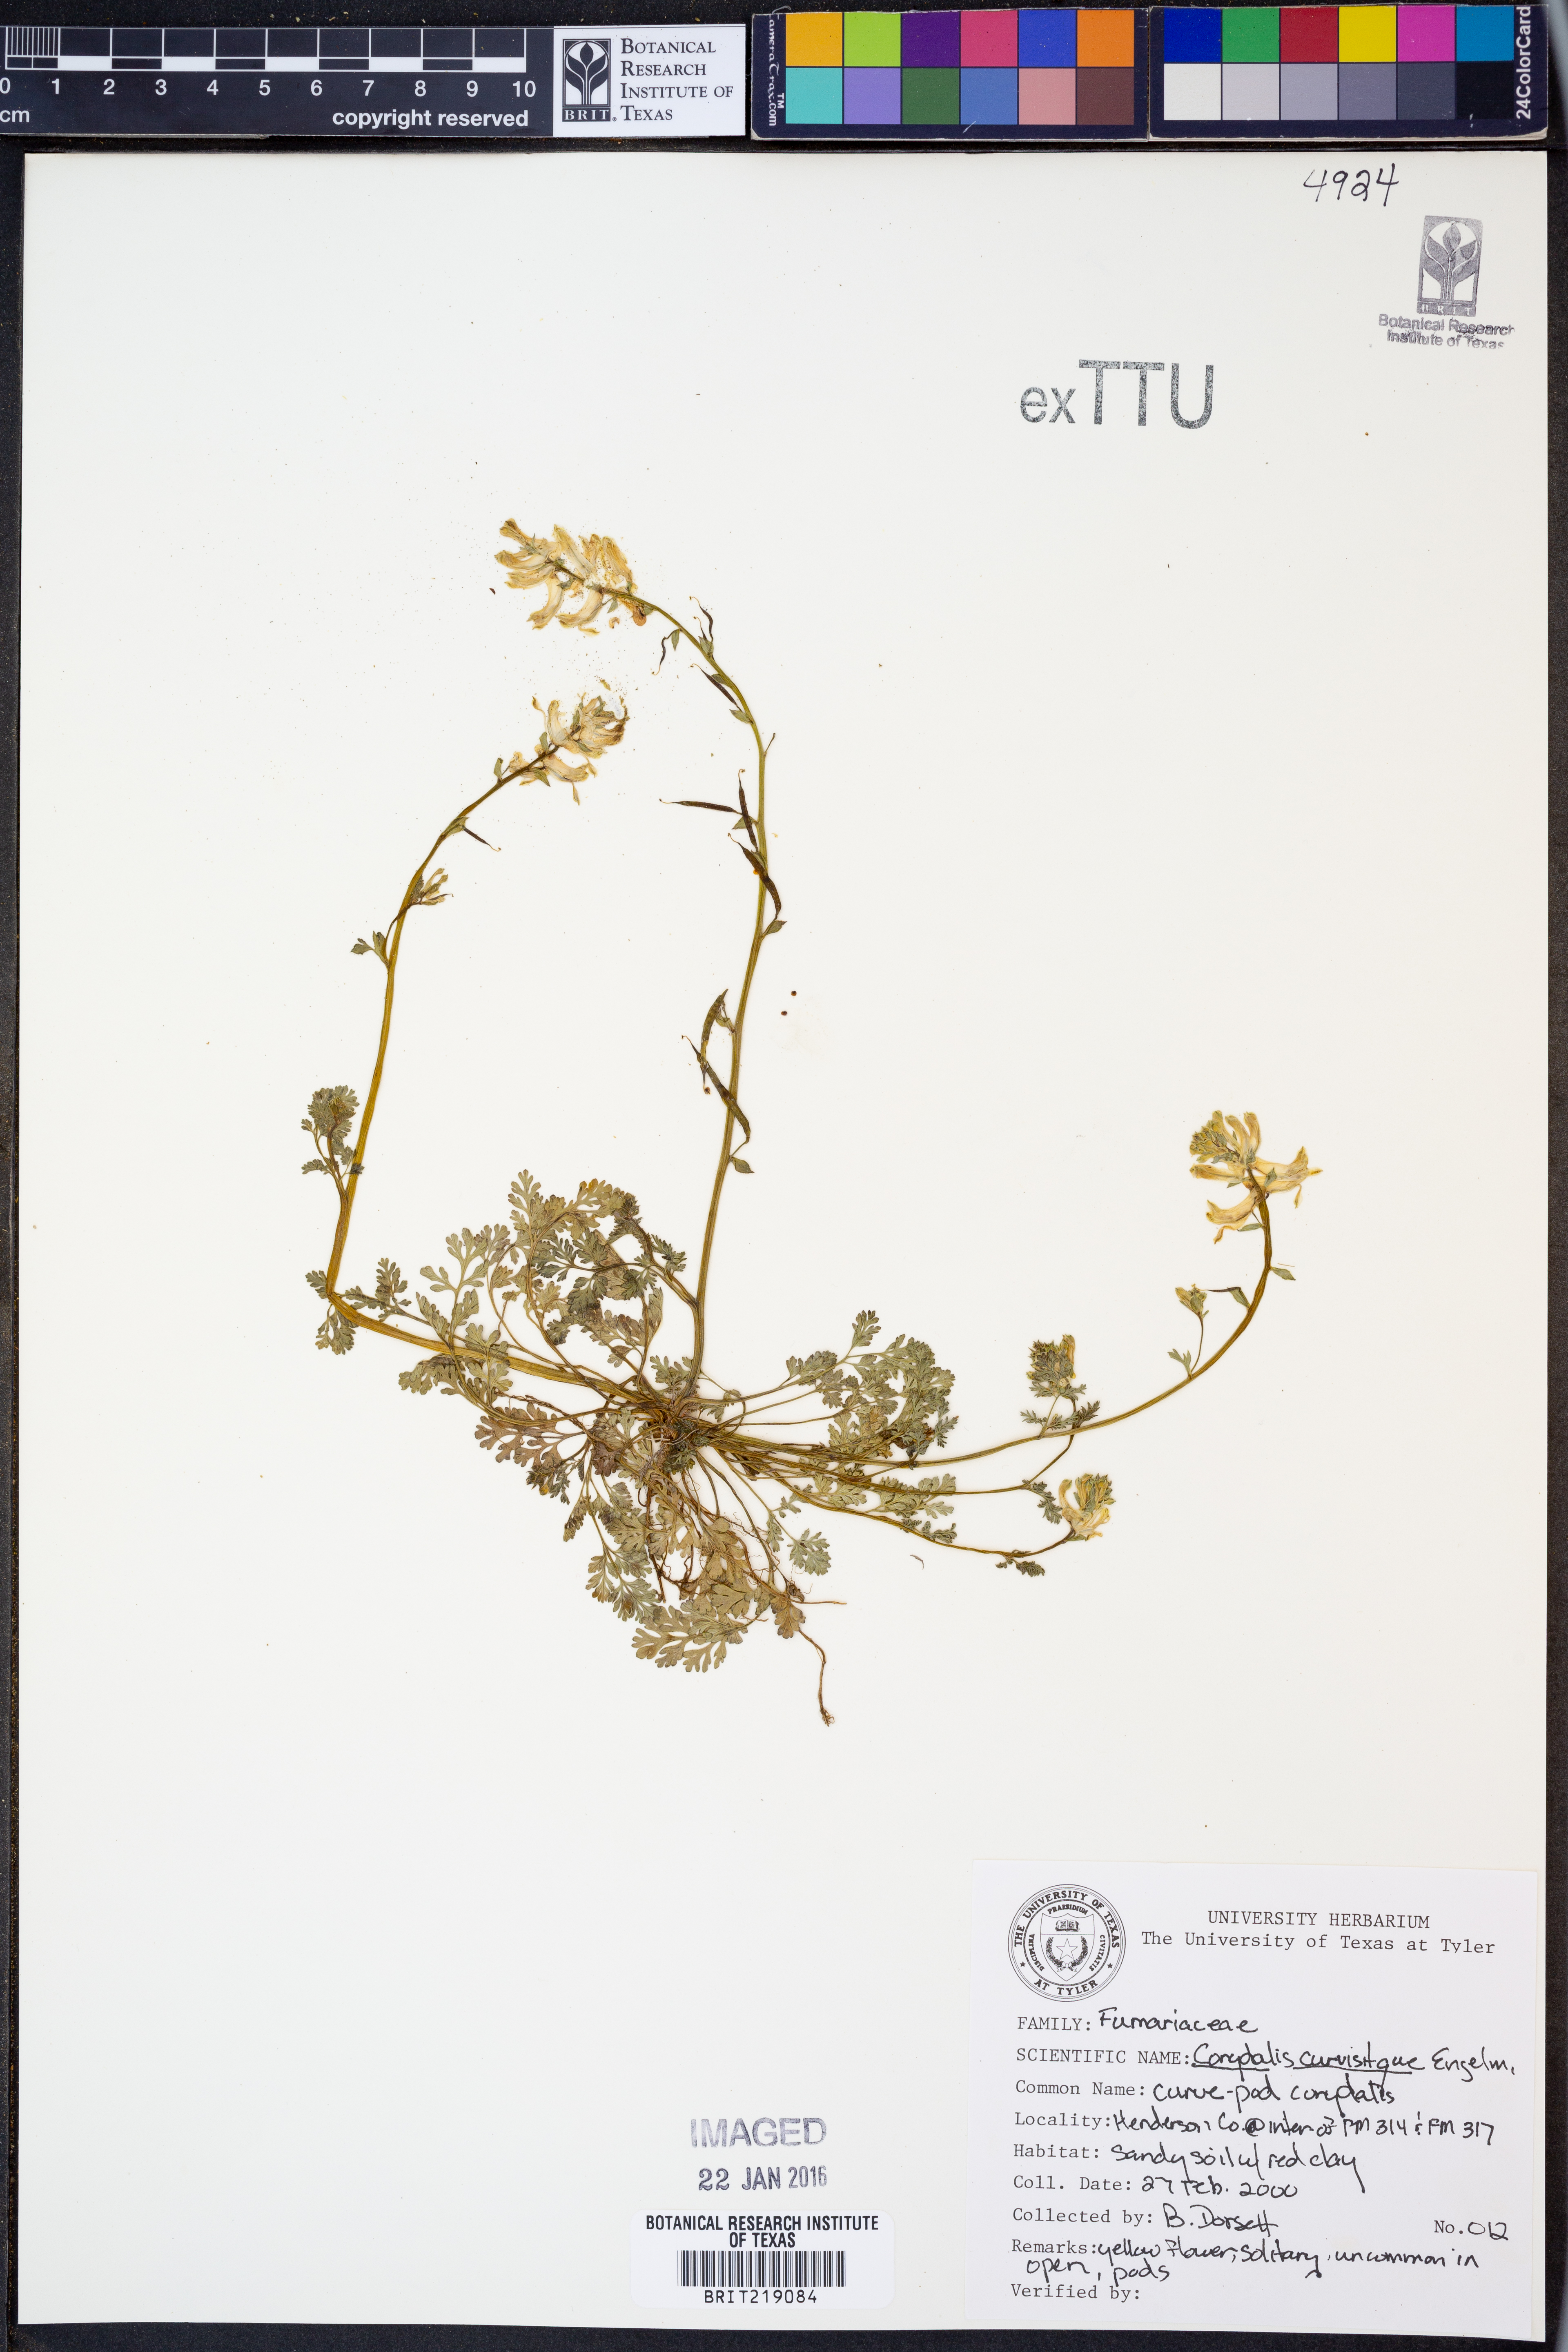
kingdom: Plantae
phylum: Tracheophyta
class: Magnoliopsida
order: Ranunculales
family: Papaveraceae
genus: Corydalis
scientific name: Corydalis curvisiliqua
